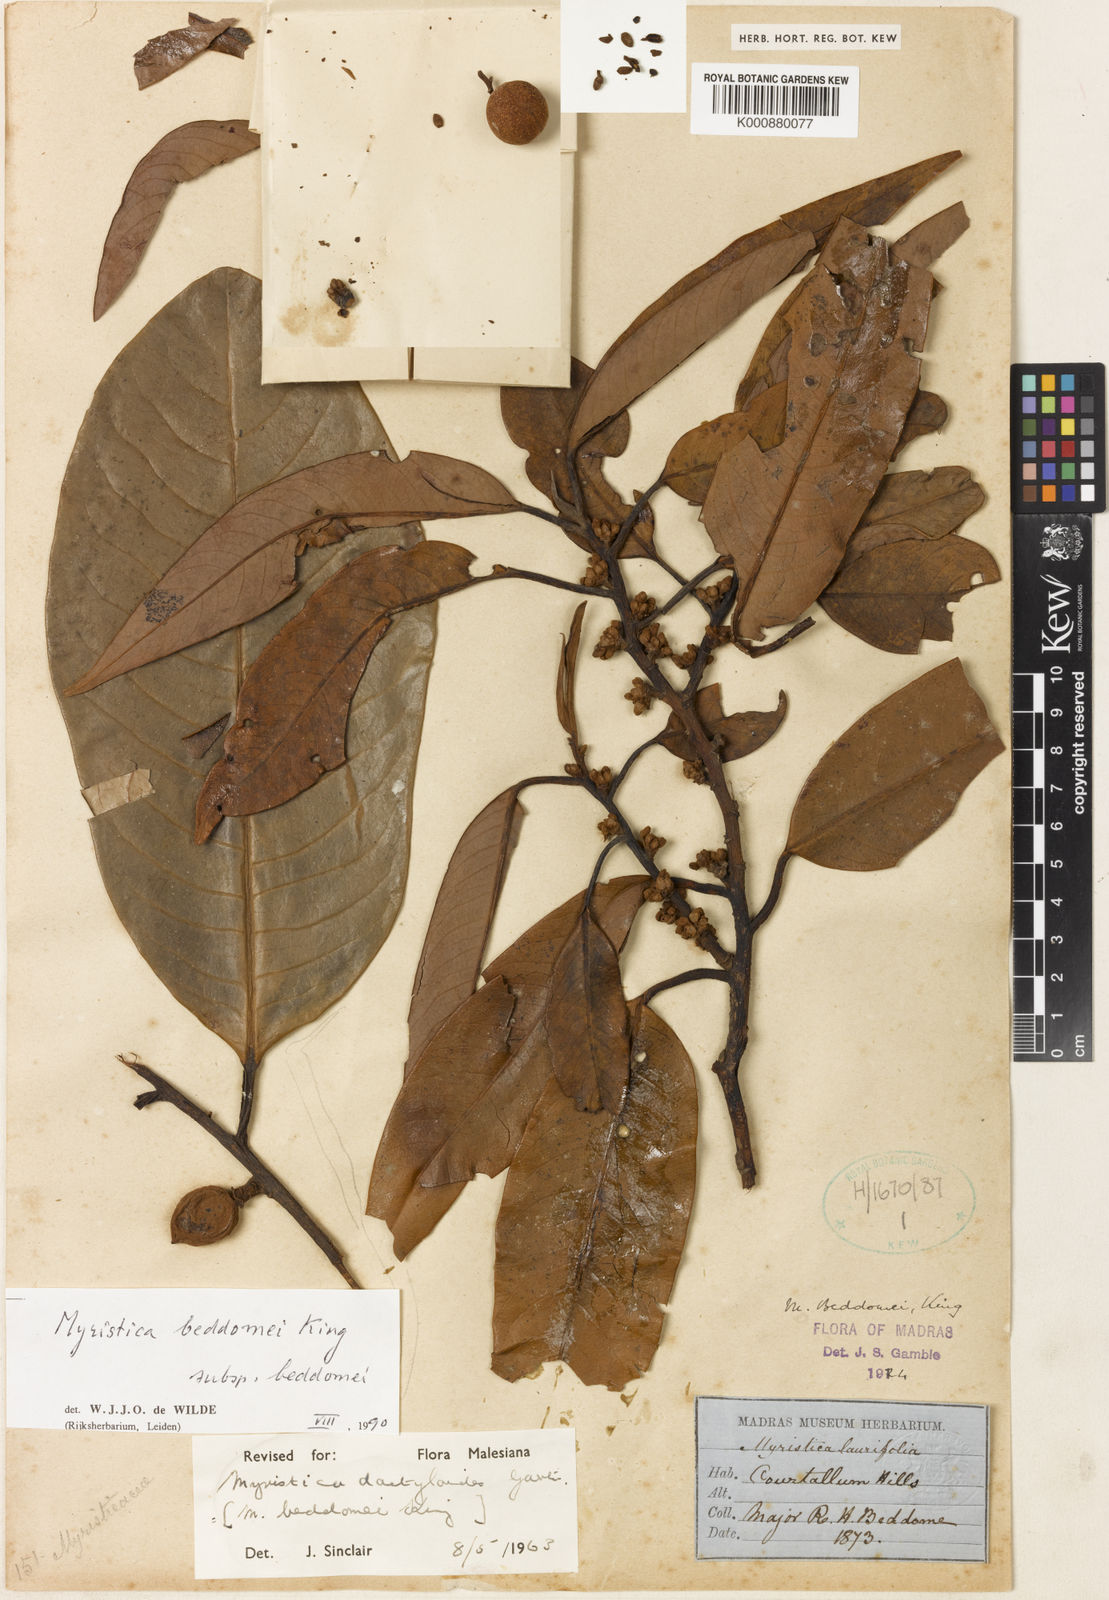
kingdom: Plantae
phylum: Tracheophyta
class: Magnoliopsida
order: Magnoliales
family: Myristicaceae
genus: Myristica
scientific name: Myristica beddomei
